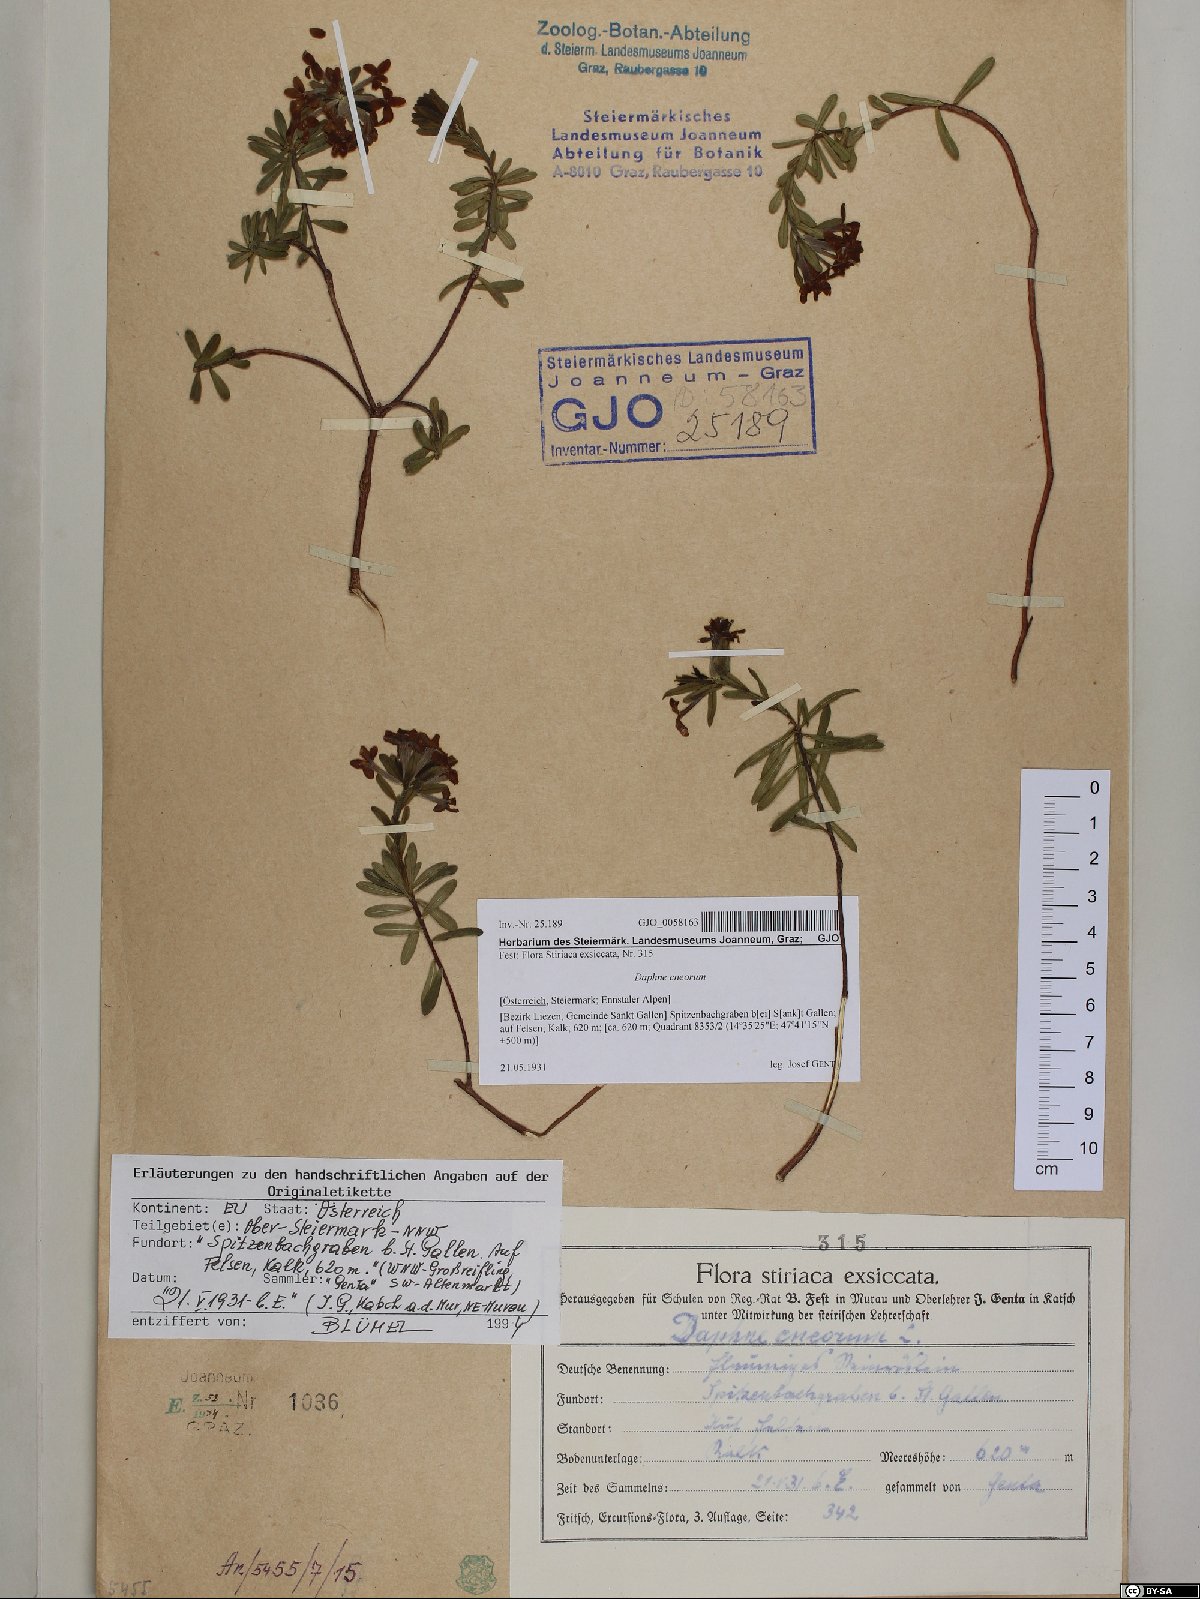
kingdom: Plantae
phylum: Tracheophyta
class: Magnoliopsida
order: Malvales
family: Thymelaeaceae
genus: Daphne
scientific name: Daphne cneorum
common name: Garland-flower
